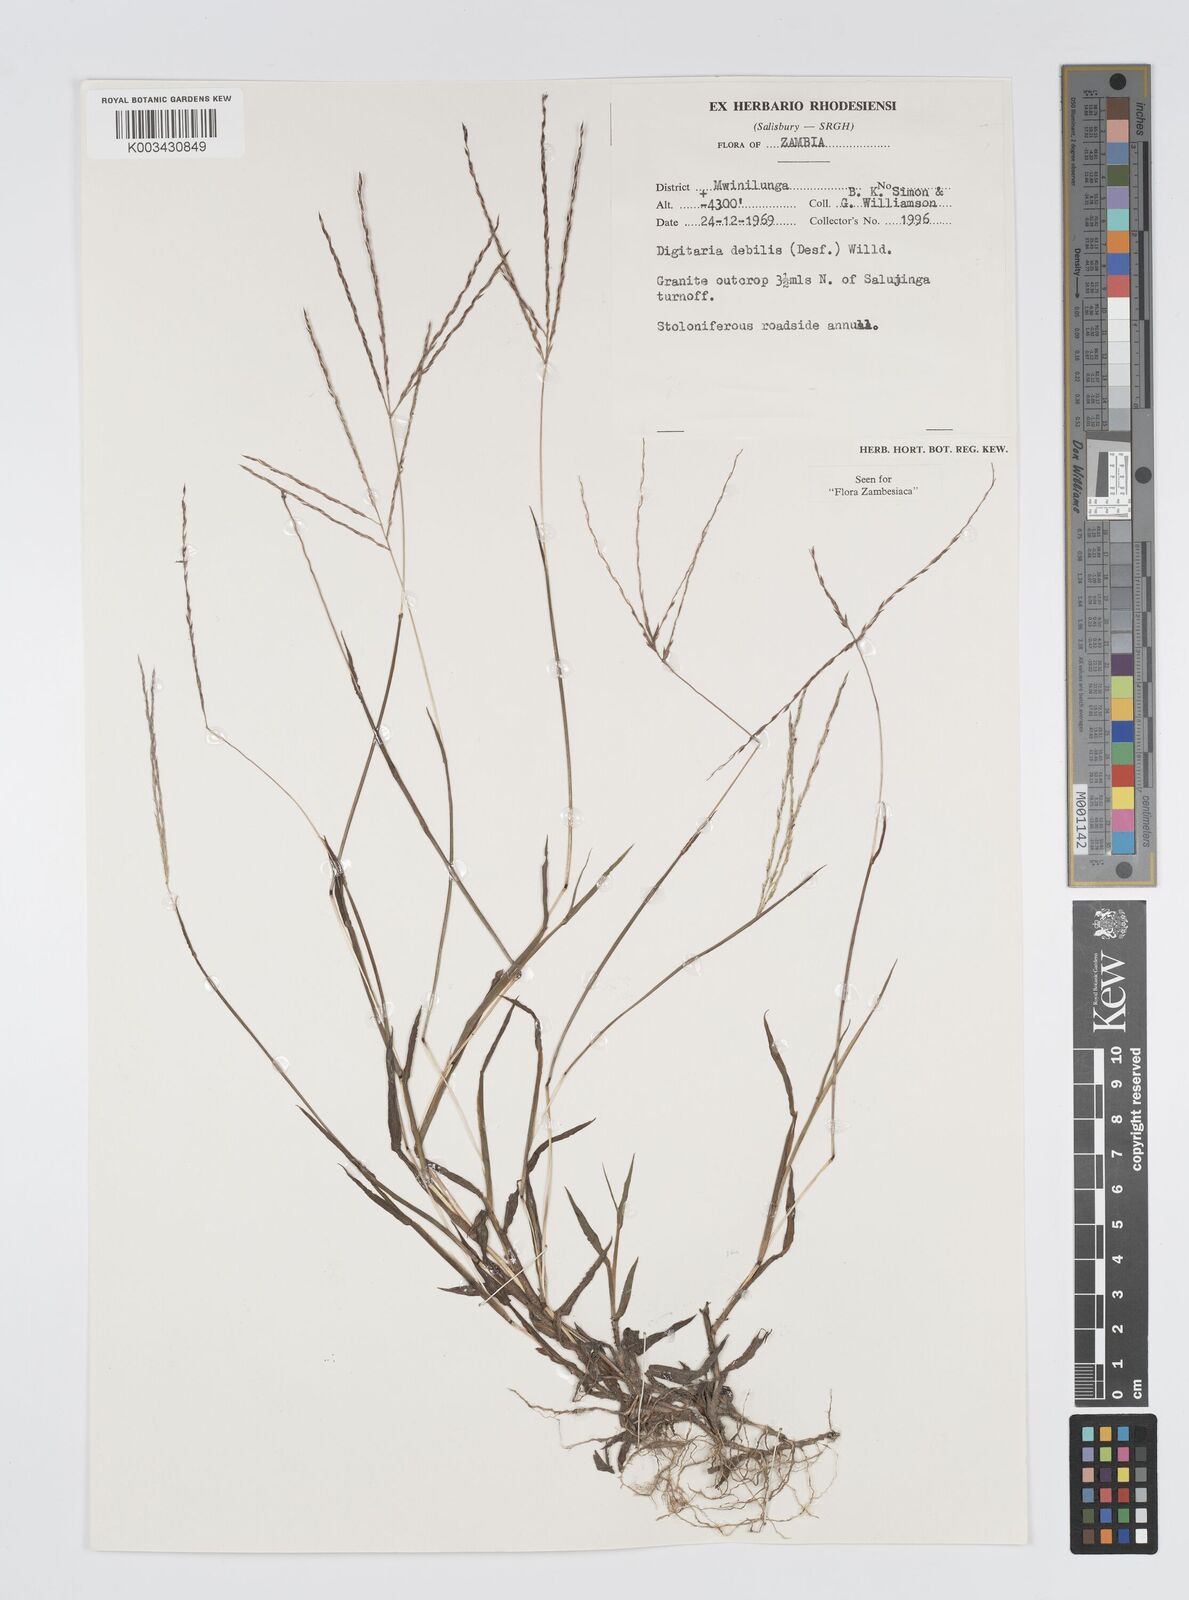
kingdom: Plantae
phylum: Tracheophyta
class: Liliopsida
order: Poales
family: Poaceae
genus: Digitaria
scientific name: Digitaria debilis
